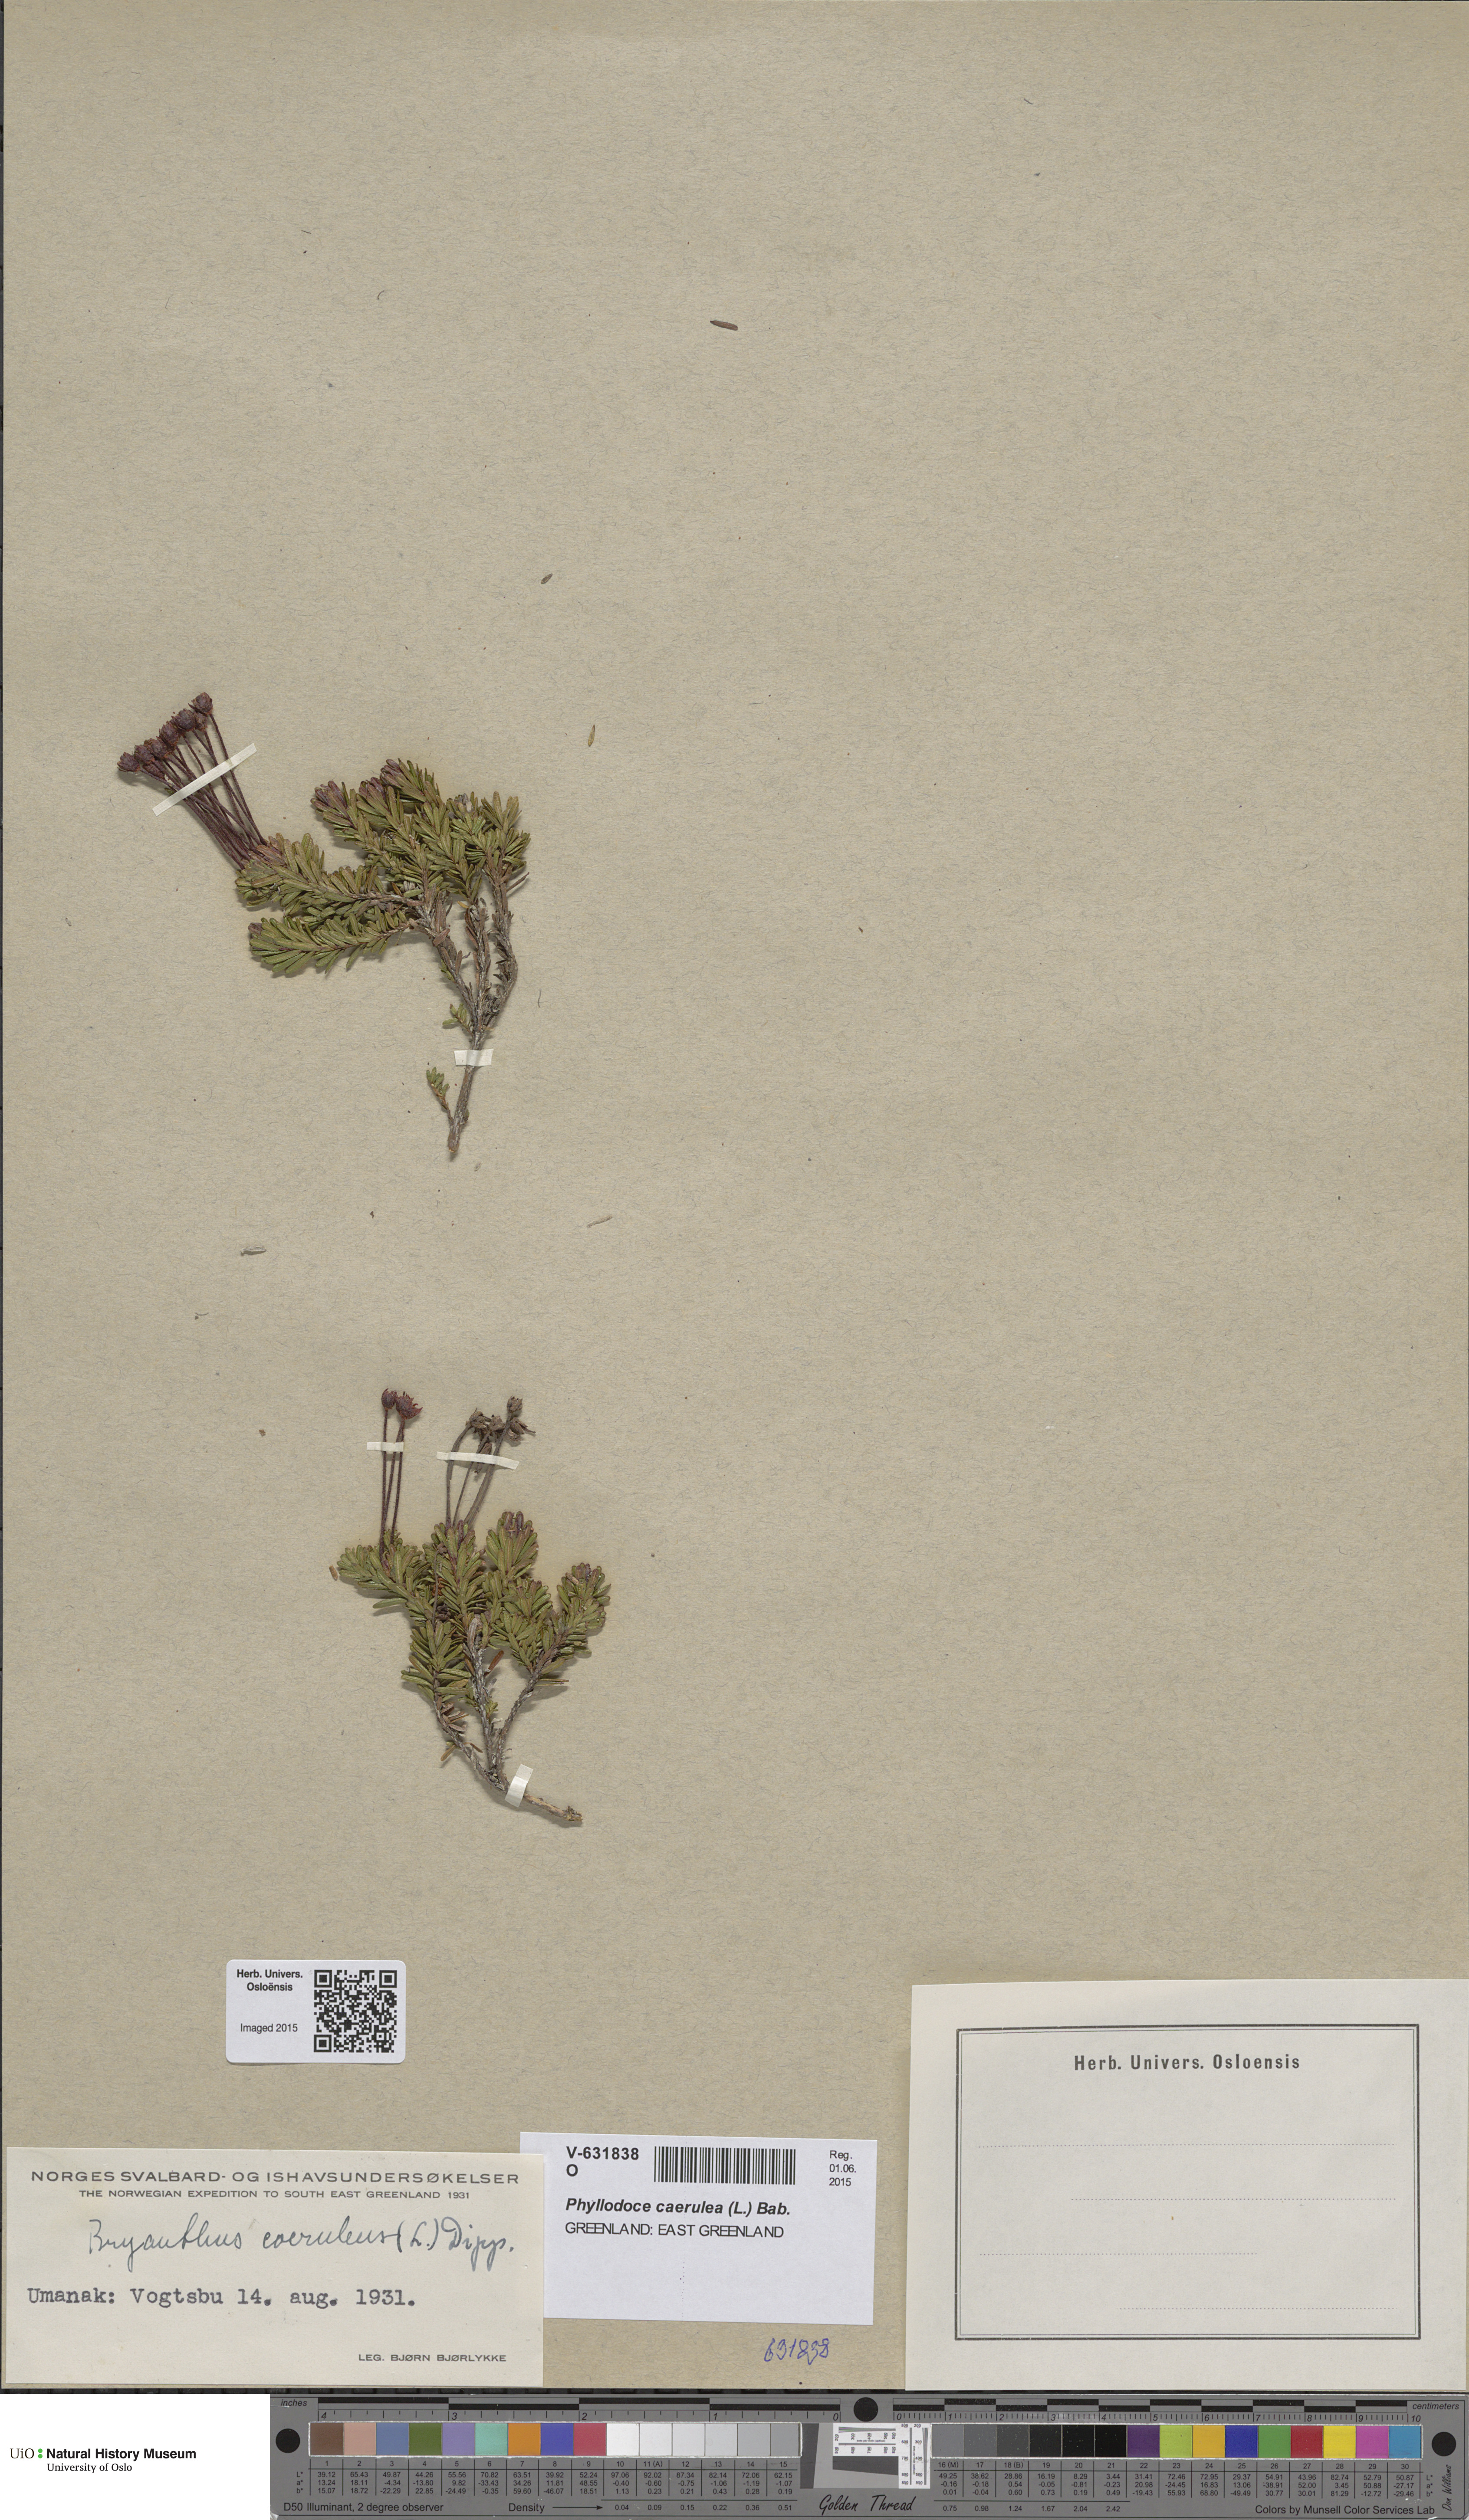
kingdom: Plantae
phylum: Tracheophyta
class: Magnoliopsida
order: Ericales
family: Ericaceae
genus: Phyllodoce
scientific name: Phyllodoce caerulea
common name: Blue heath
